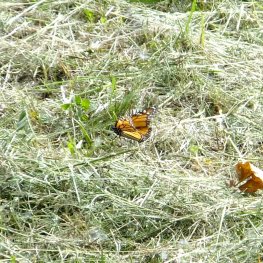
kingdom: Animalia
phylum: Arthropoda
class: Insecta
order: Lepidoptera
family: Nymphalidae
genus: Danaus
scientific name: Danaus plexippus
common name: Monarch
